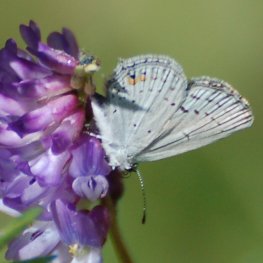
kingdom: Animalia
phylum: Arthropoda
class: Insecta
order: Lepidoptera
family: Lycaenidae
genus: Elkalyce
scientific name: Elkalyce amyntula
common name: Western Tailed-Blue
